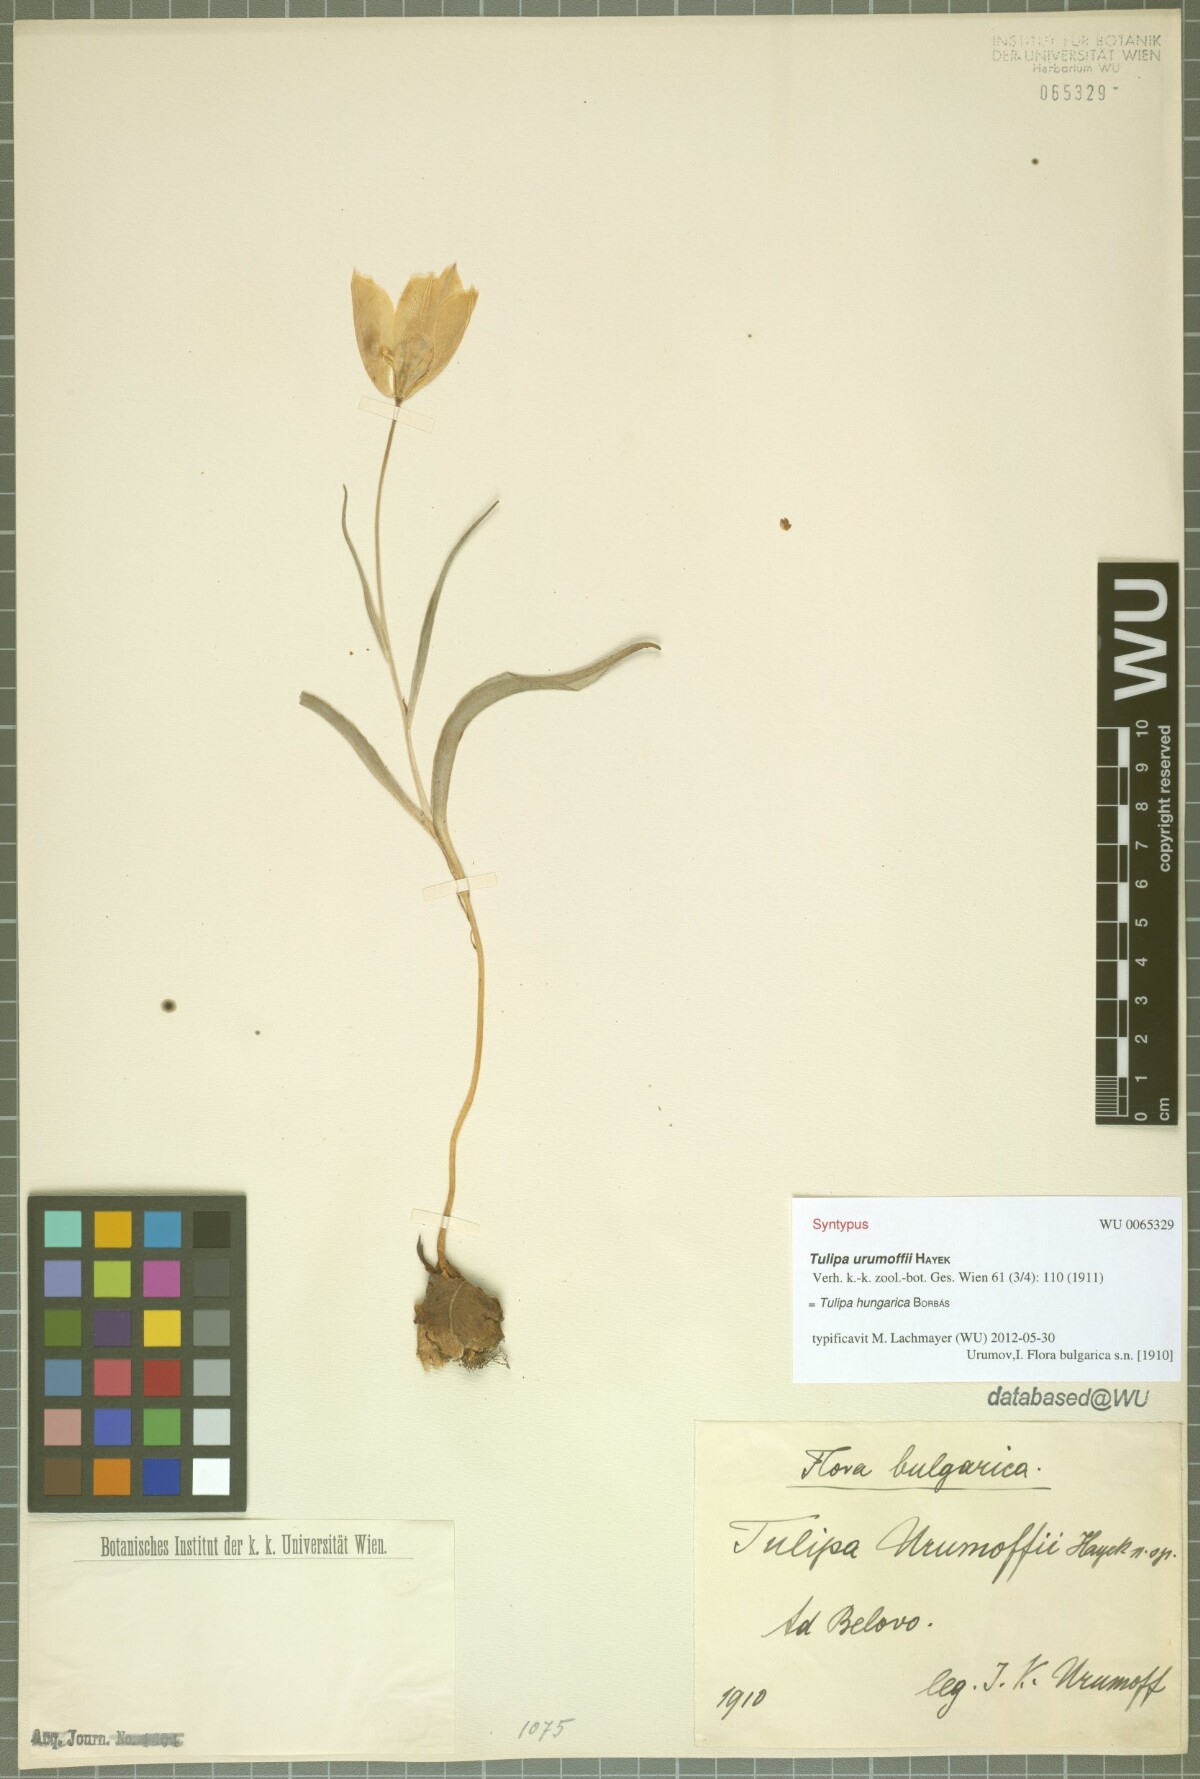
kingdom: Plantae
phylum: Tracheophyta
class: Liliopsida
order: Liliales
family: Liliaceae
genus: Tulipa
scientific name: Tulipa hungarica
